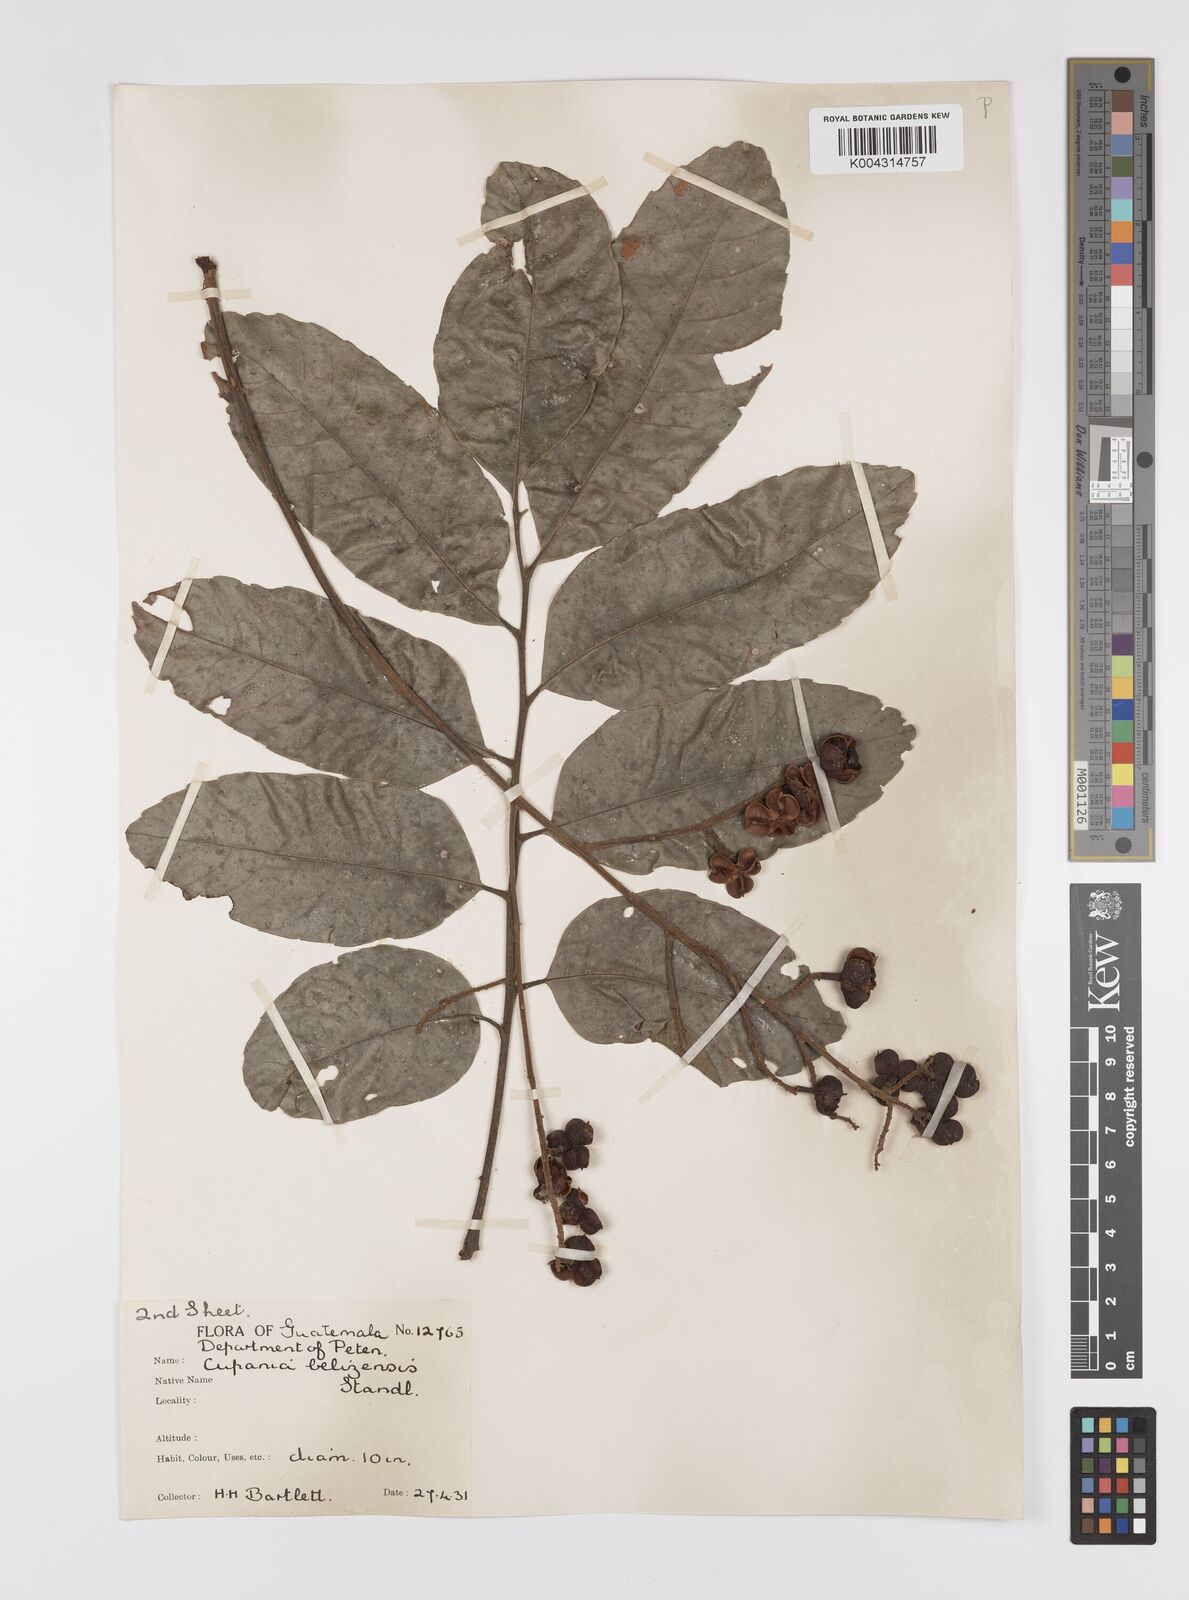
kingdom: Plantae
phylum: Tracheophyta
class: Magnoliopsida
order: Sapindales
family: Sapindaceae
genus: Cupania
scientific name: Cupania belizensis
